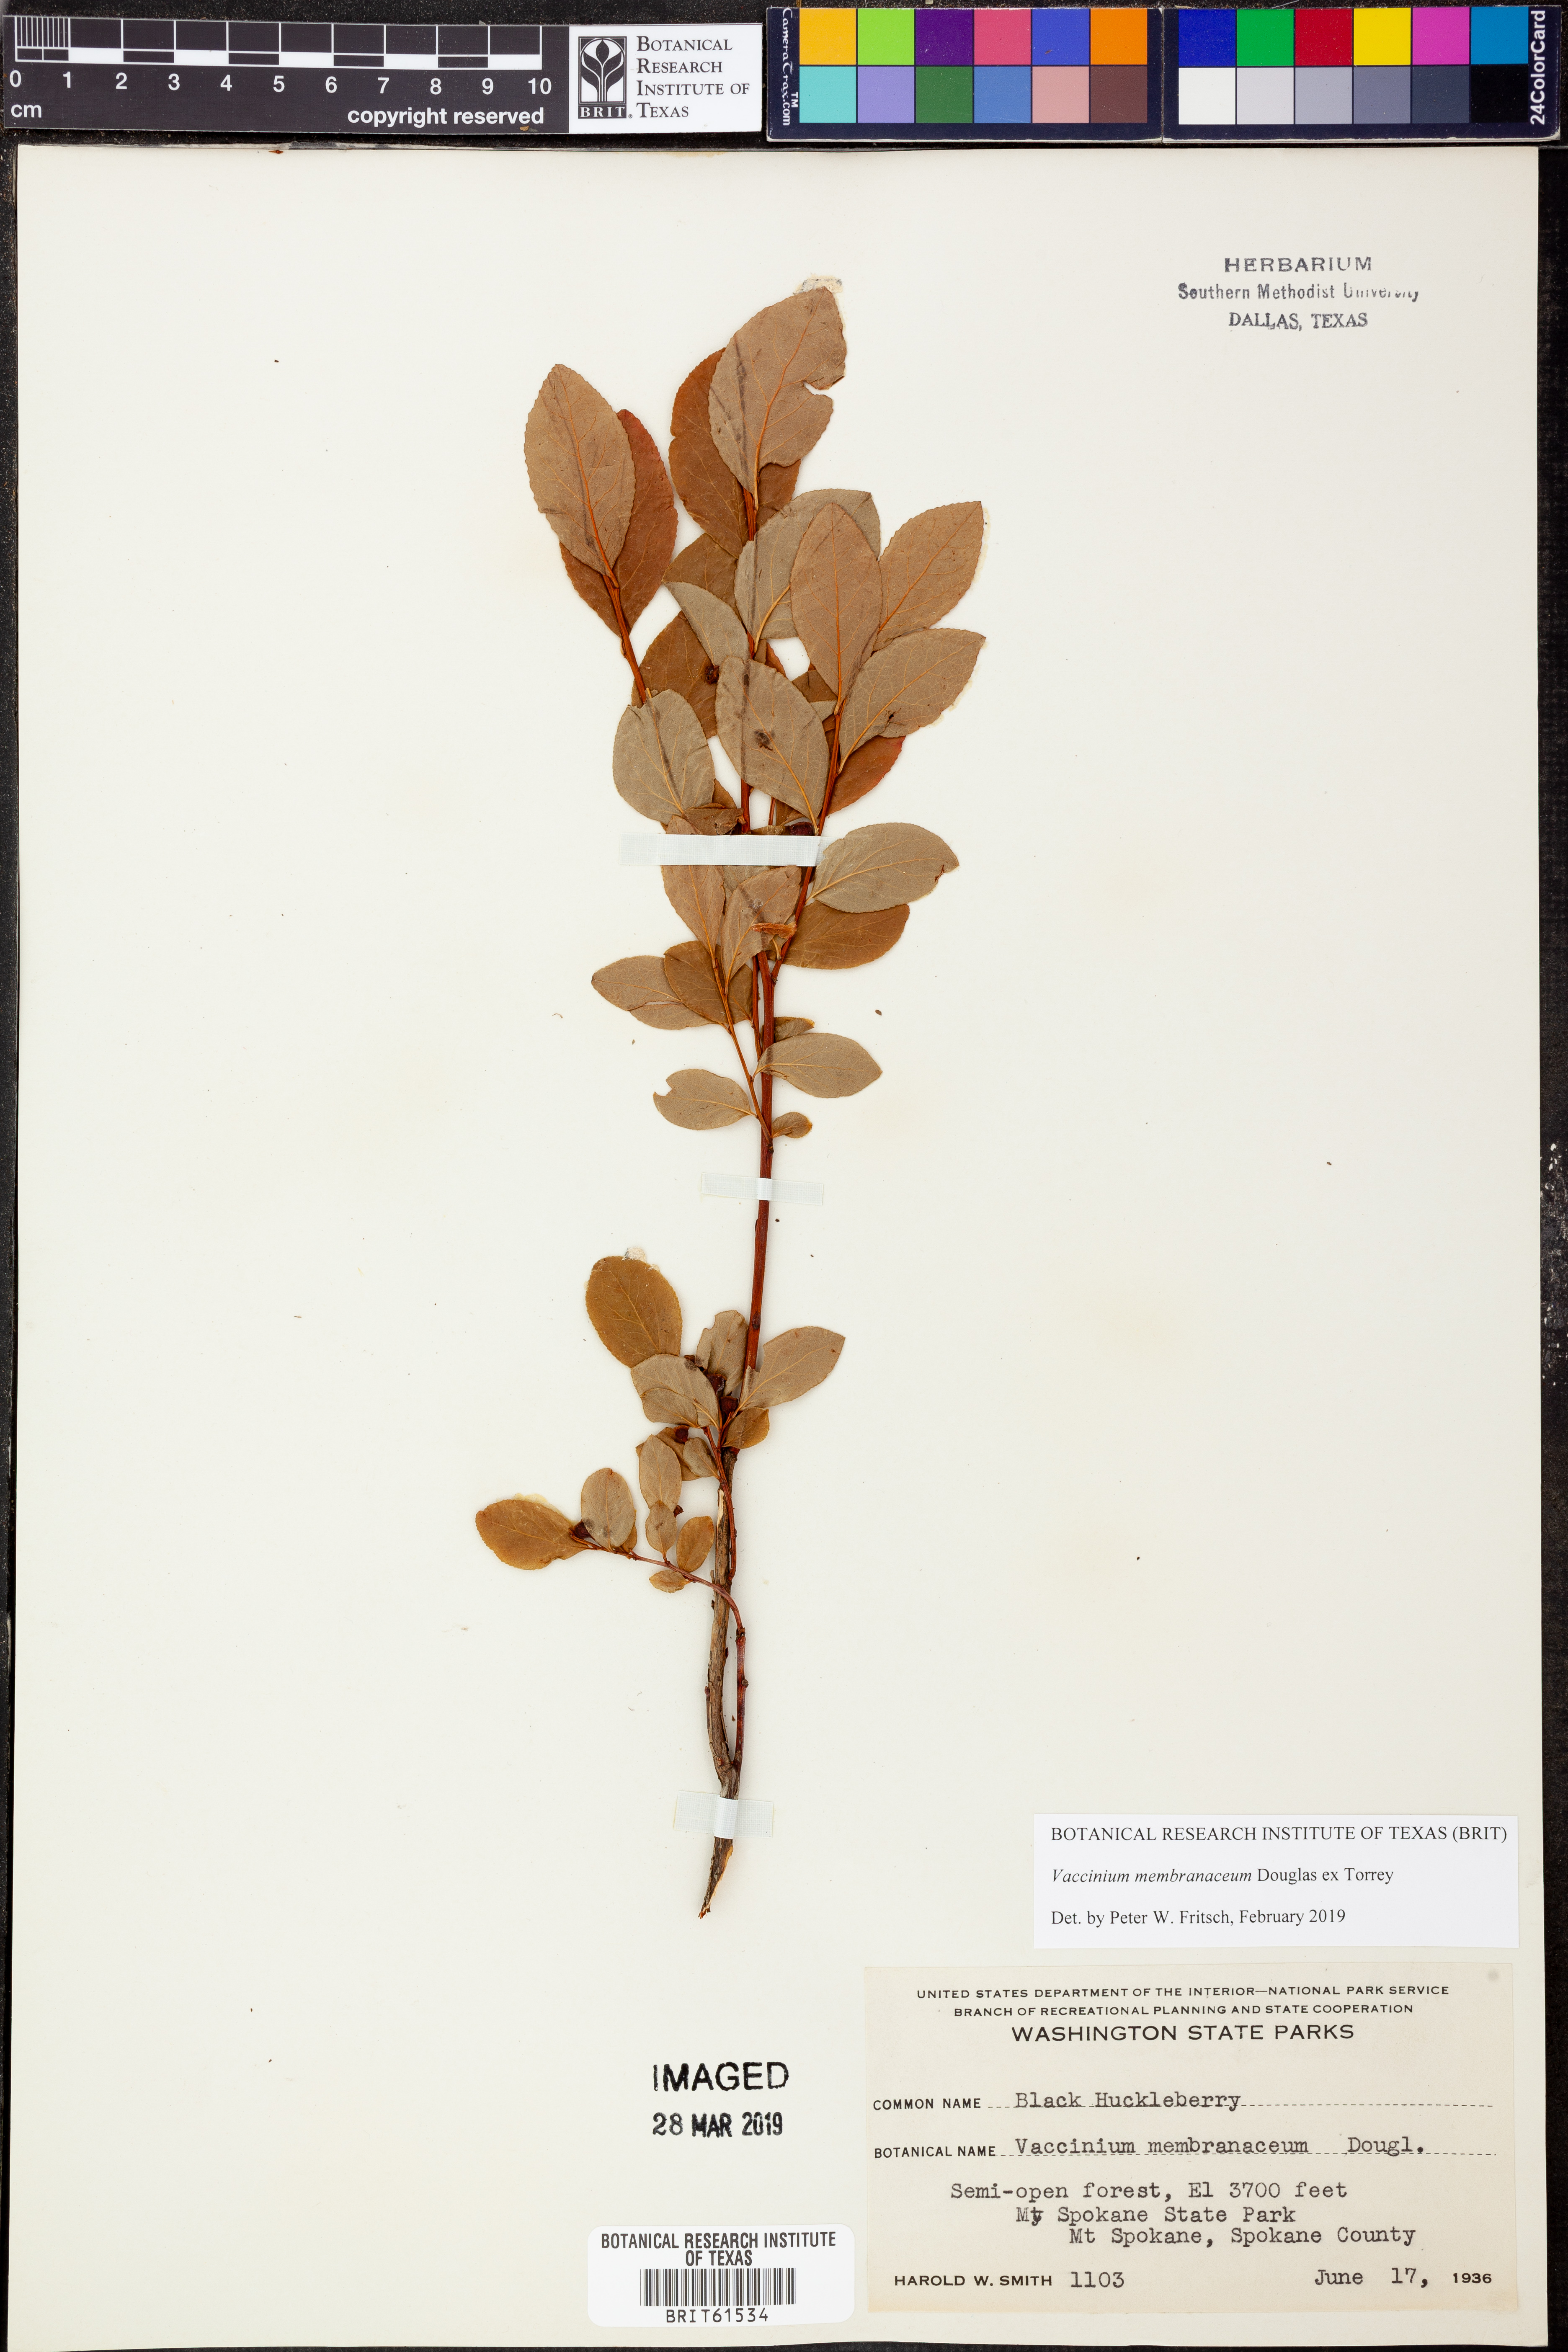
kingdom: Plantae
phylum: Tracheophyta
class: Magnoliopsida
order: Ericales
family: Ericaceae
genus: Vaccinium
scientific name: Vaccinium membranaceum
